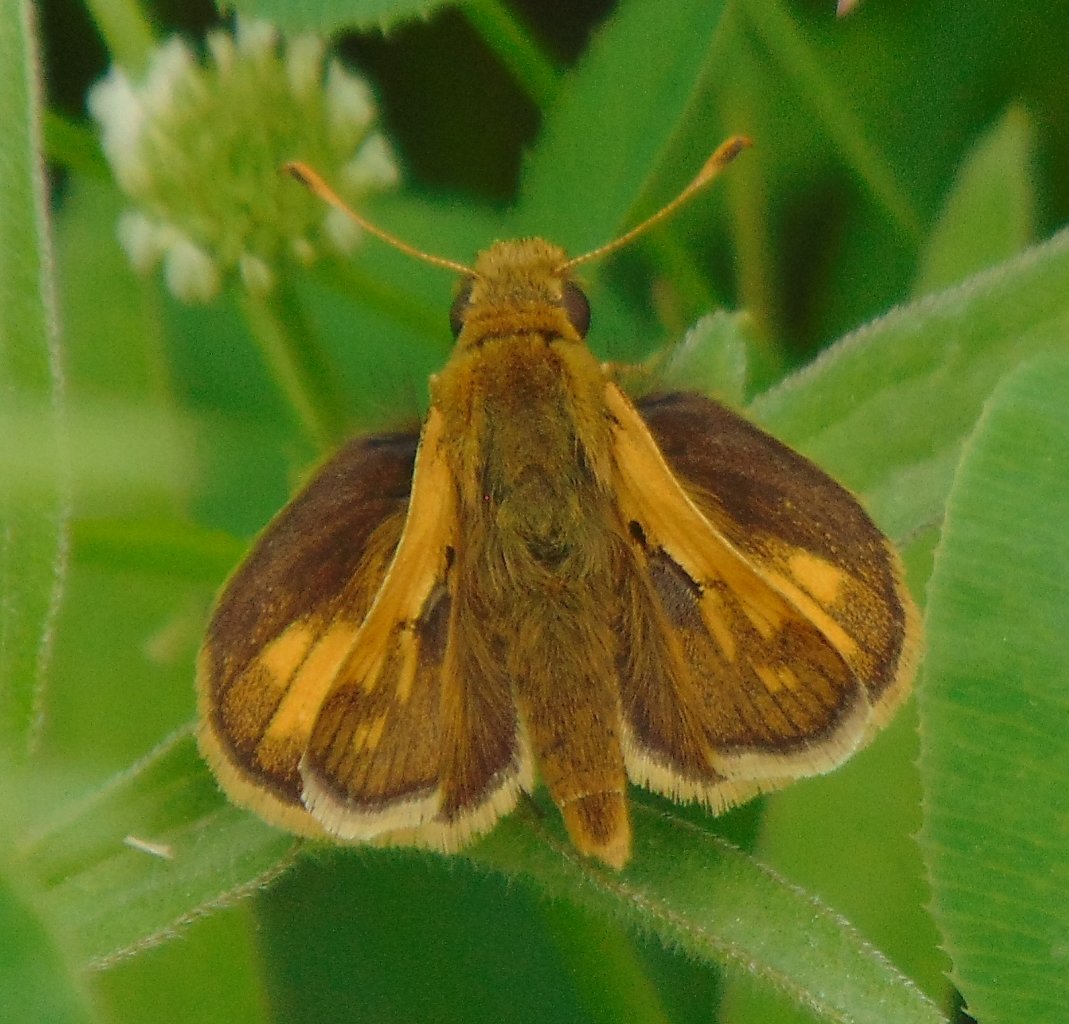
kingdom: Animalia
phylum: Arthropoda
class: Insecta
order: Lepidoptera
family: Hesperiidae
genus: Polites
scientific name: Polites coras
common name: Peck's Skipper
